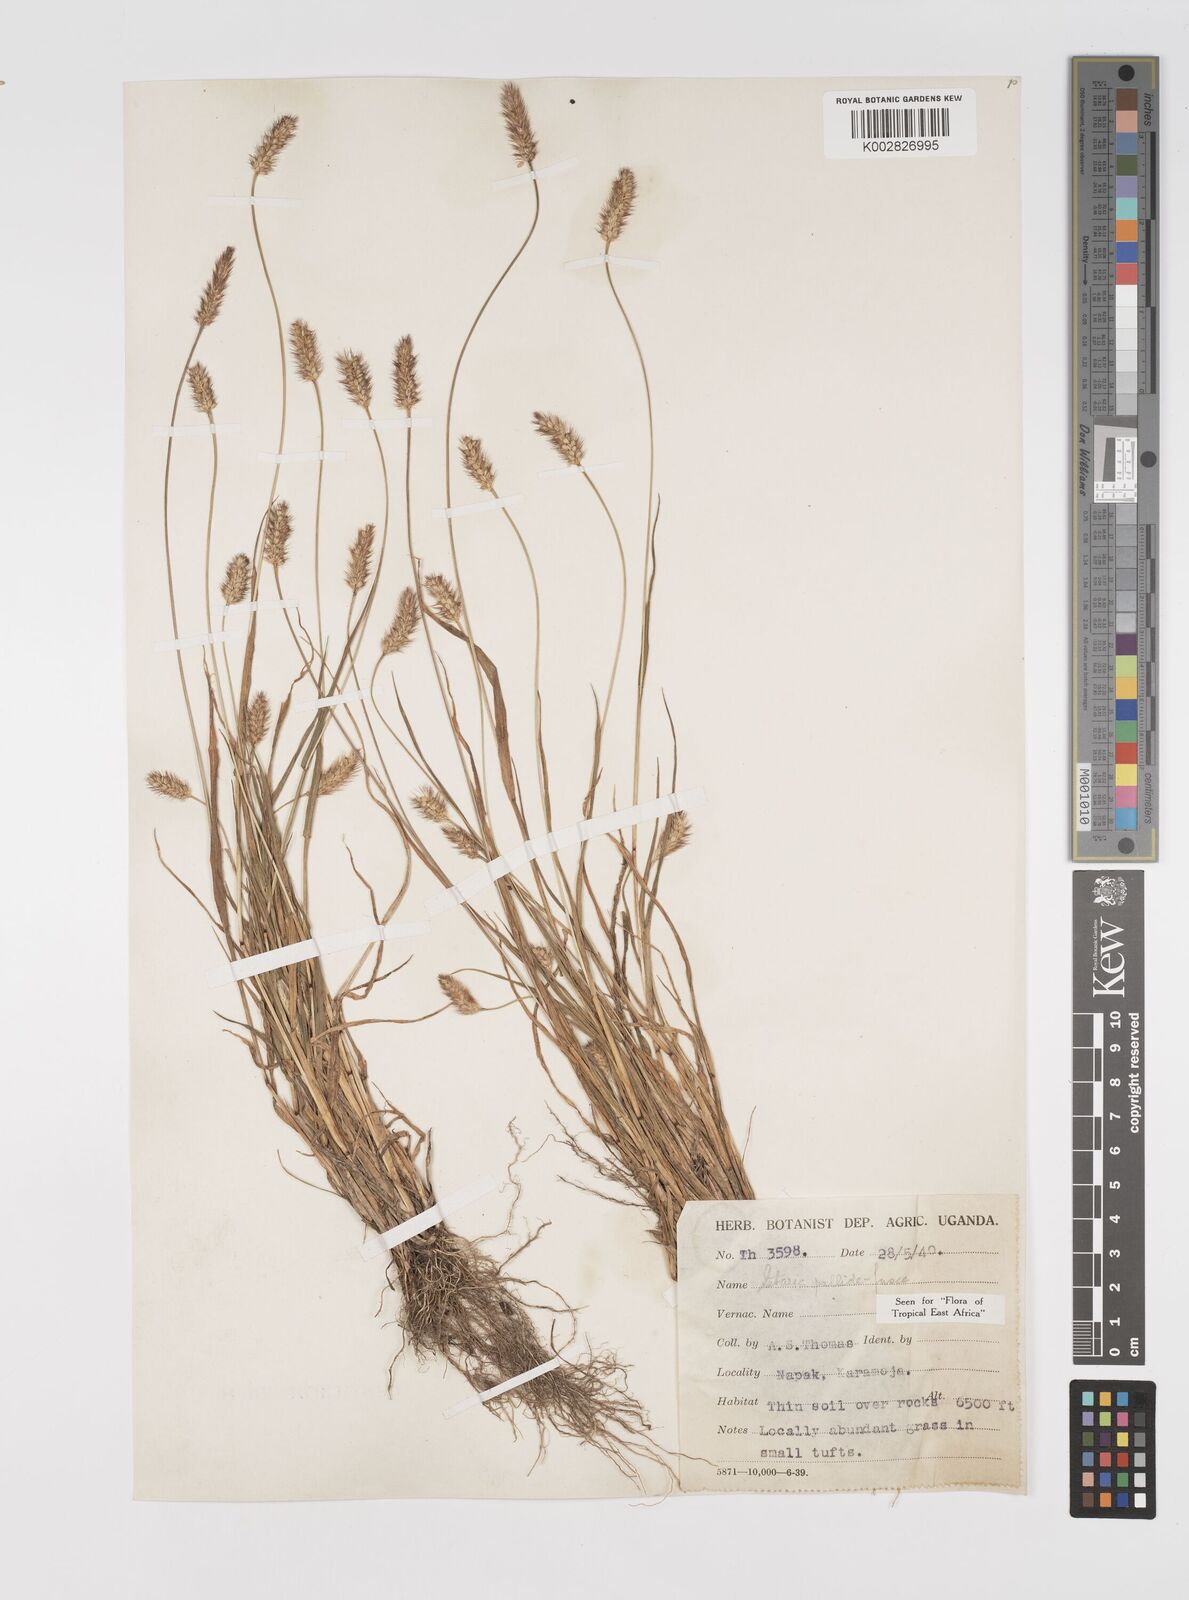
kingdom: Plantae
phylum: Tracheophyta
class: Liliopsida
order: Poales
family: Poaceae
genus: Setaria
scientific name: Setaria pumila
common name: Yellow bristle-grass
